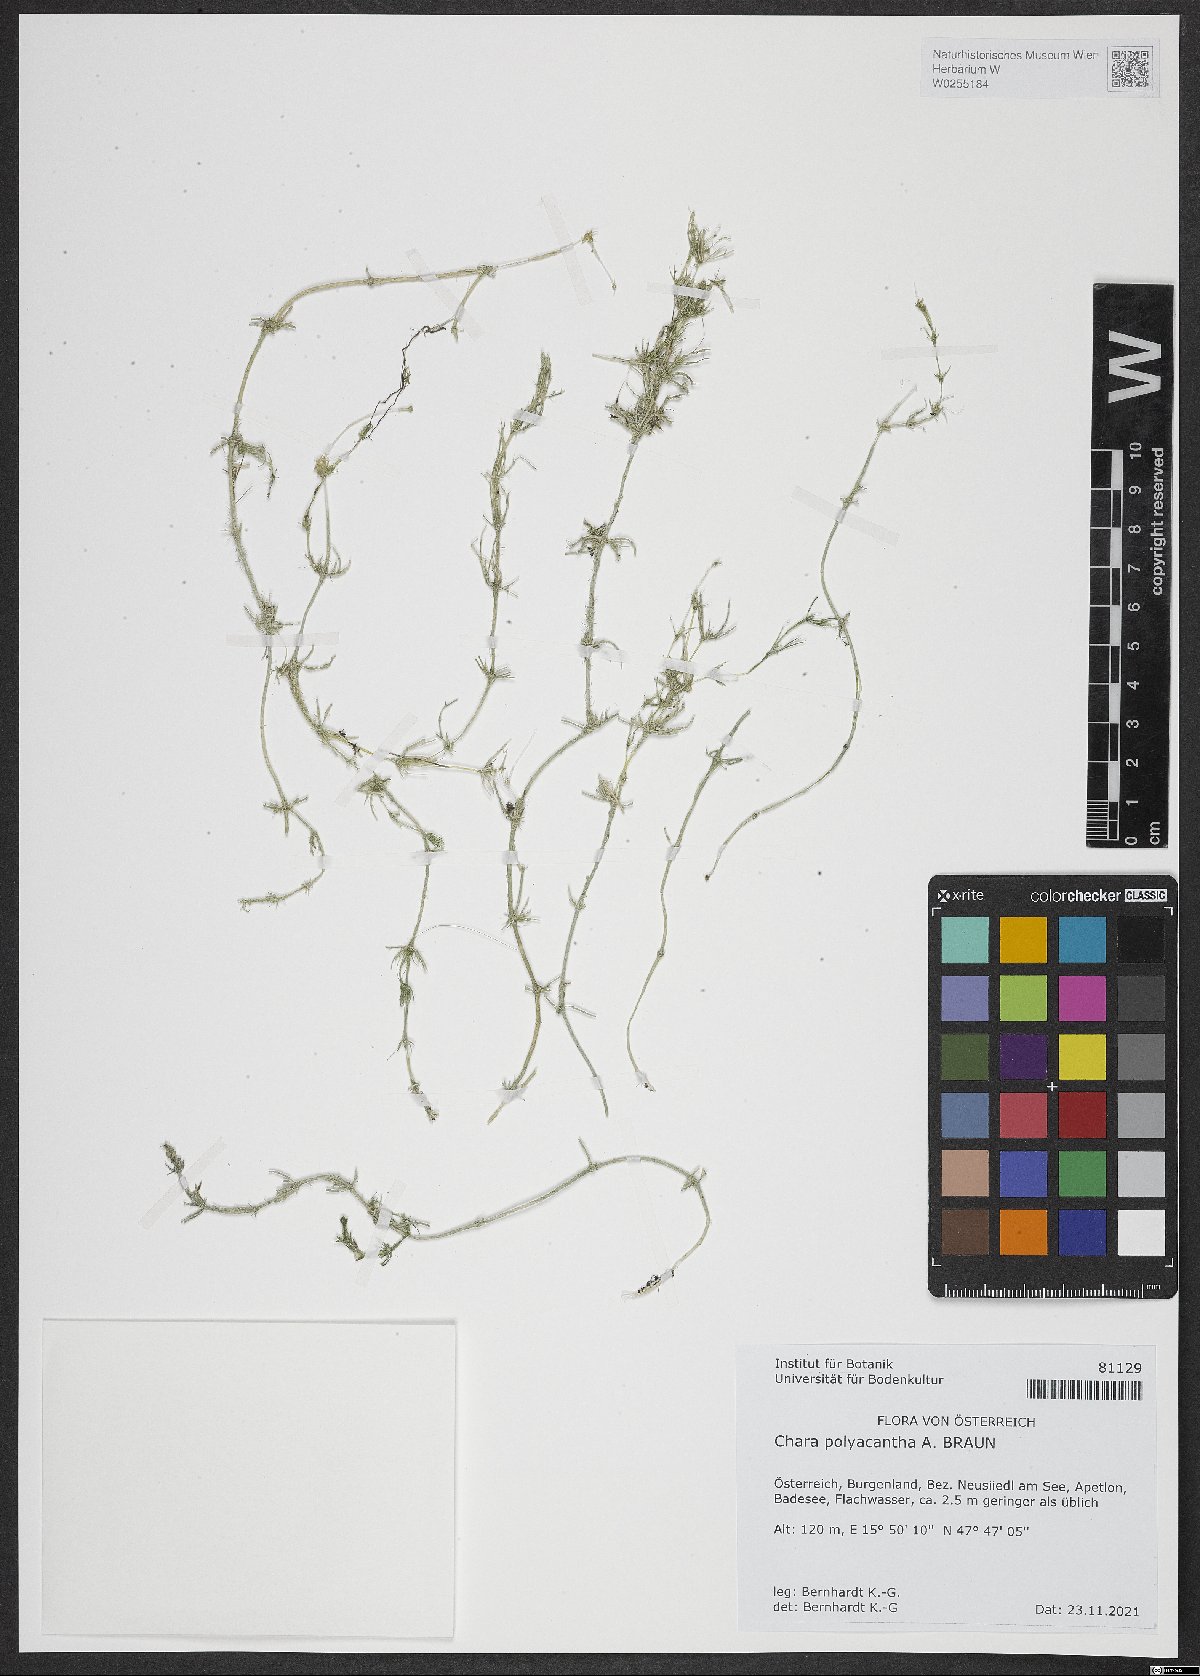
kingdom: Plantae
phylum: Charophyta
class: Charophyceae
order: Charales
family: Characeae
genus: Chara
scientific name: Chara aculeolata
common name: Hedgehog stonewort
